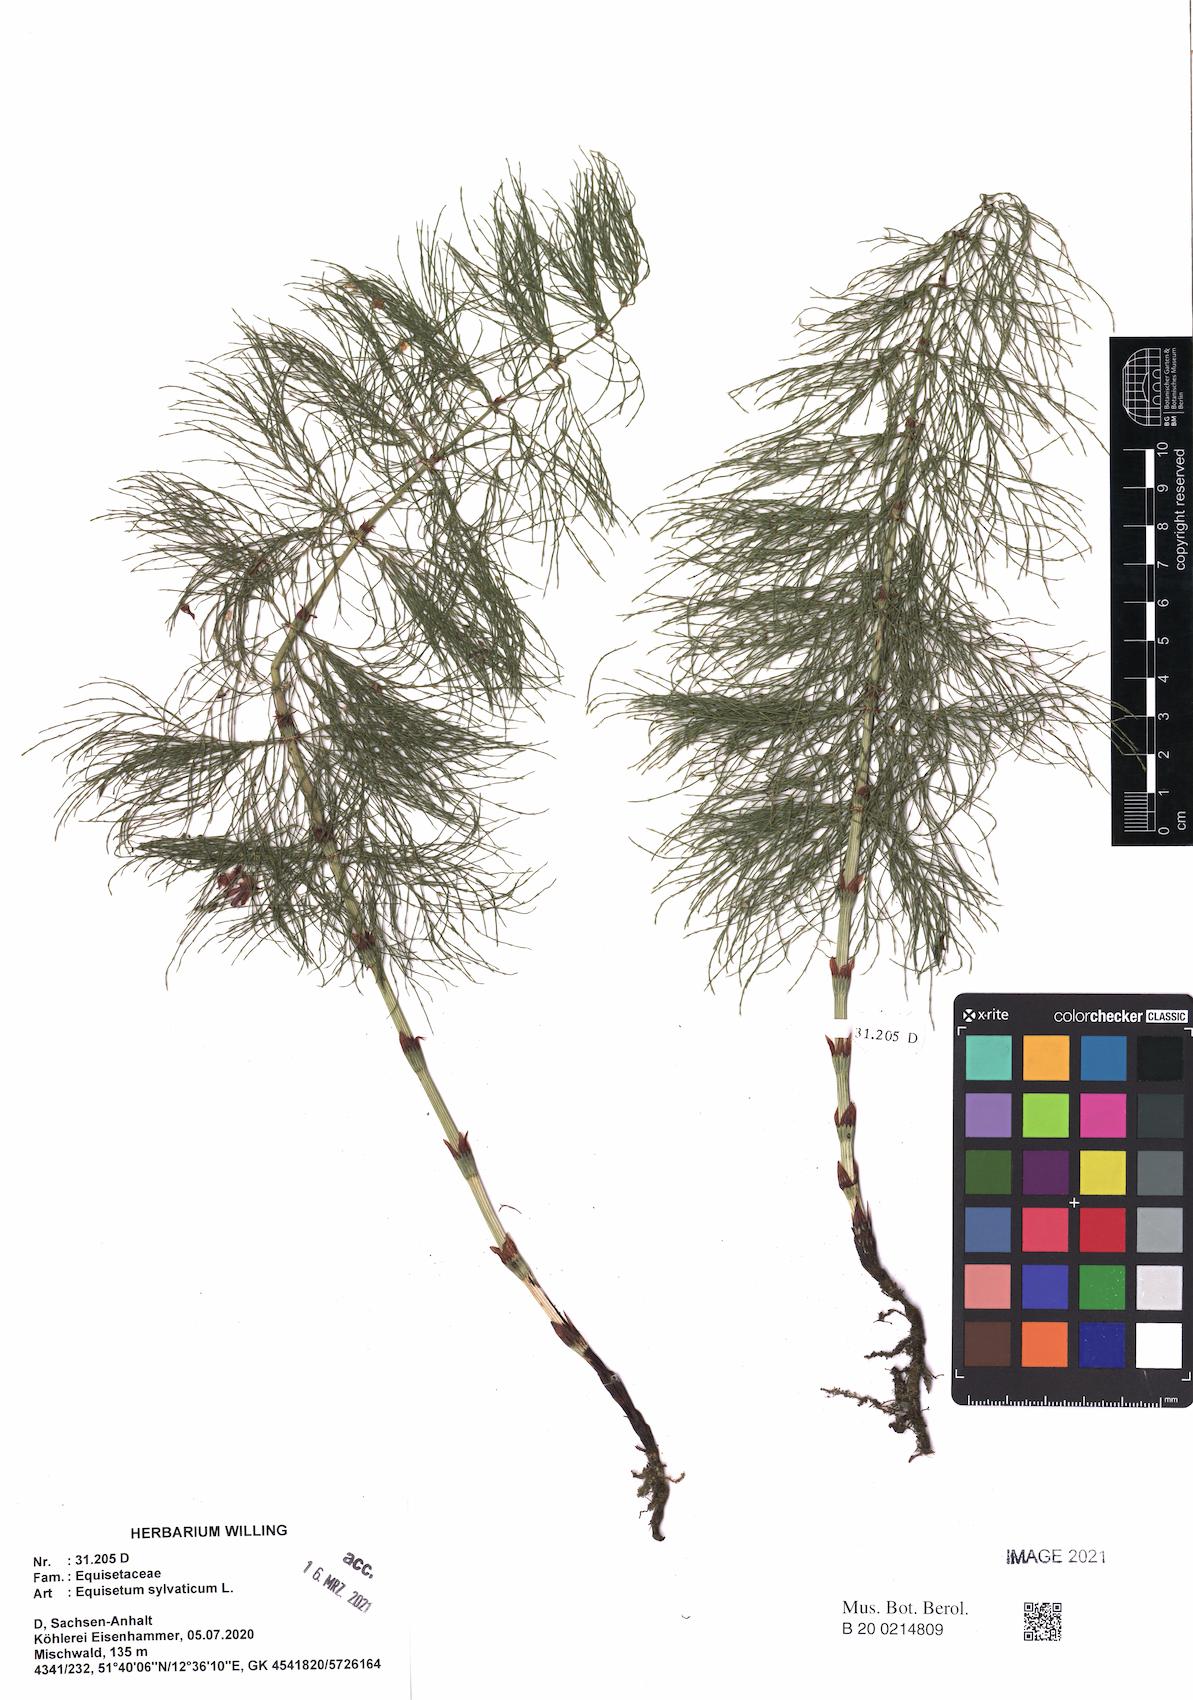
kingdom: Plantae
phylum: Tracheophyta
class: Polypodiopsida
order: Equisetales
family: Equisetaceae
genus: Equisetum
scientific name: Equisetum sylvaticum
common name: Wood horsetail
